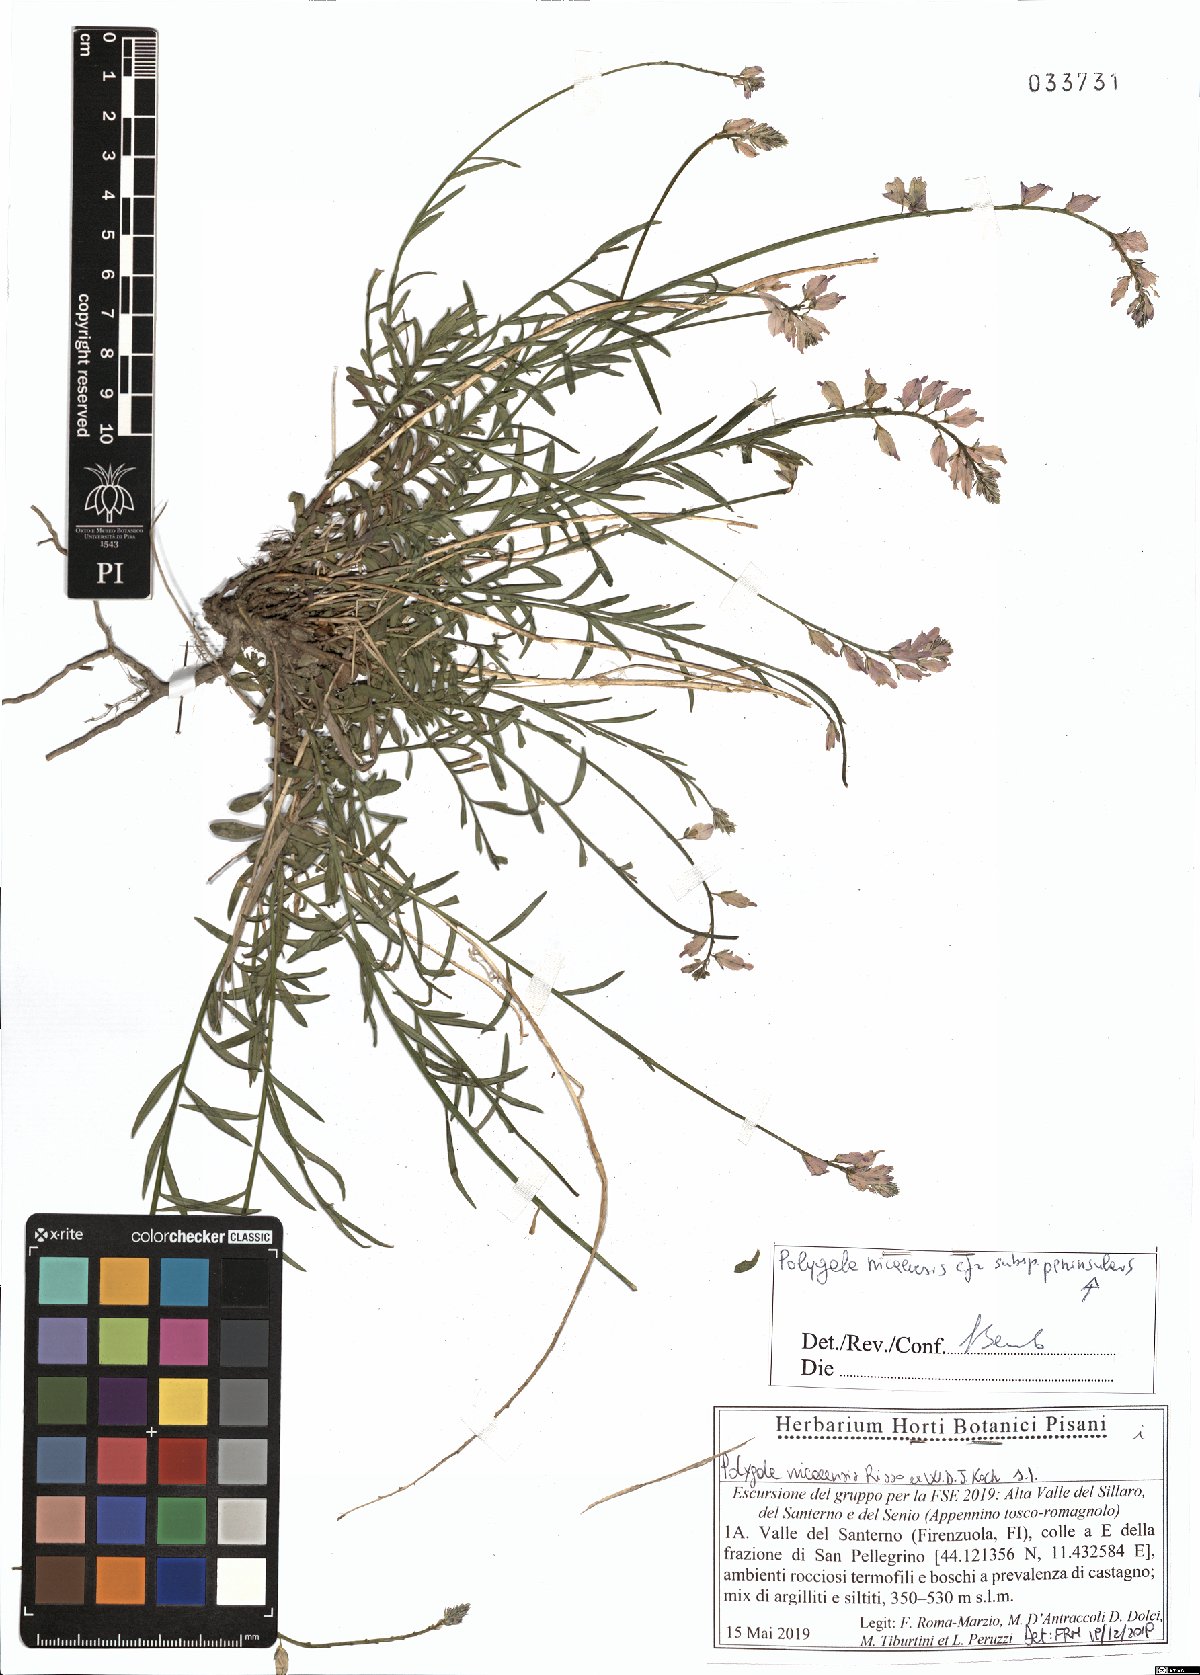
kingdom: Plantae
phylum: Tracheophyta
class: Magnoliopsida
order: Fabales
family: Polygalaceae
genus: Polygala
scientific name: Polygala nicaeensis
